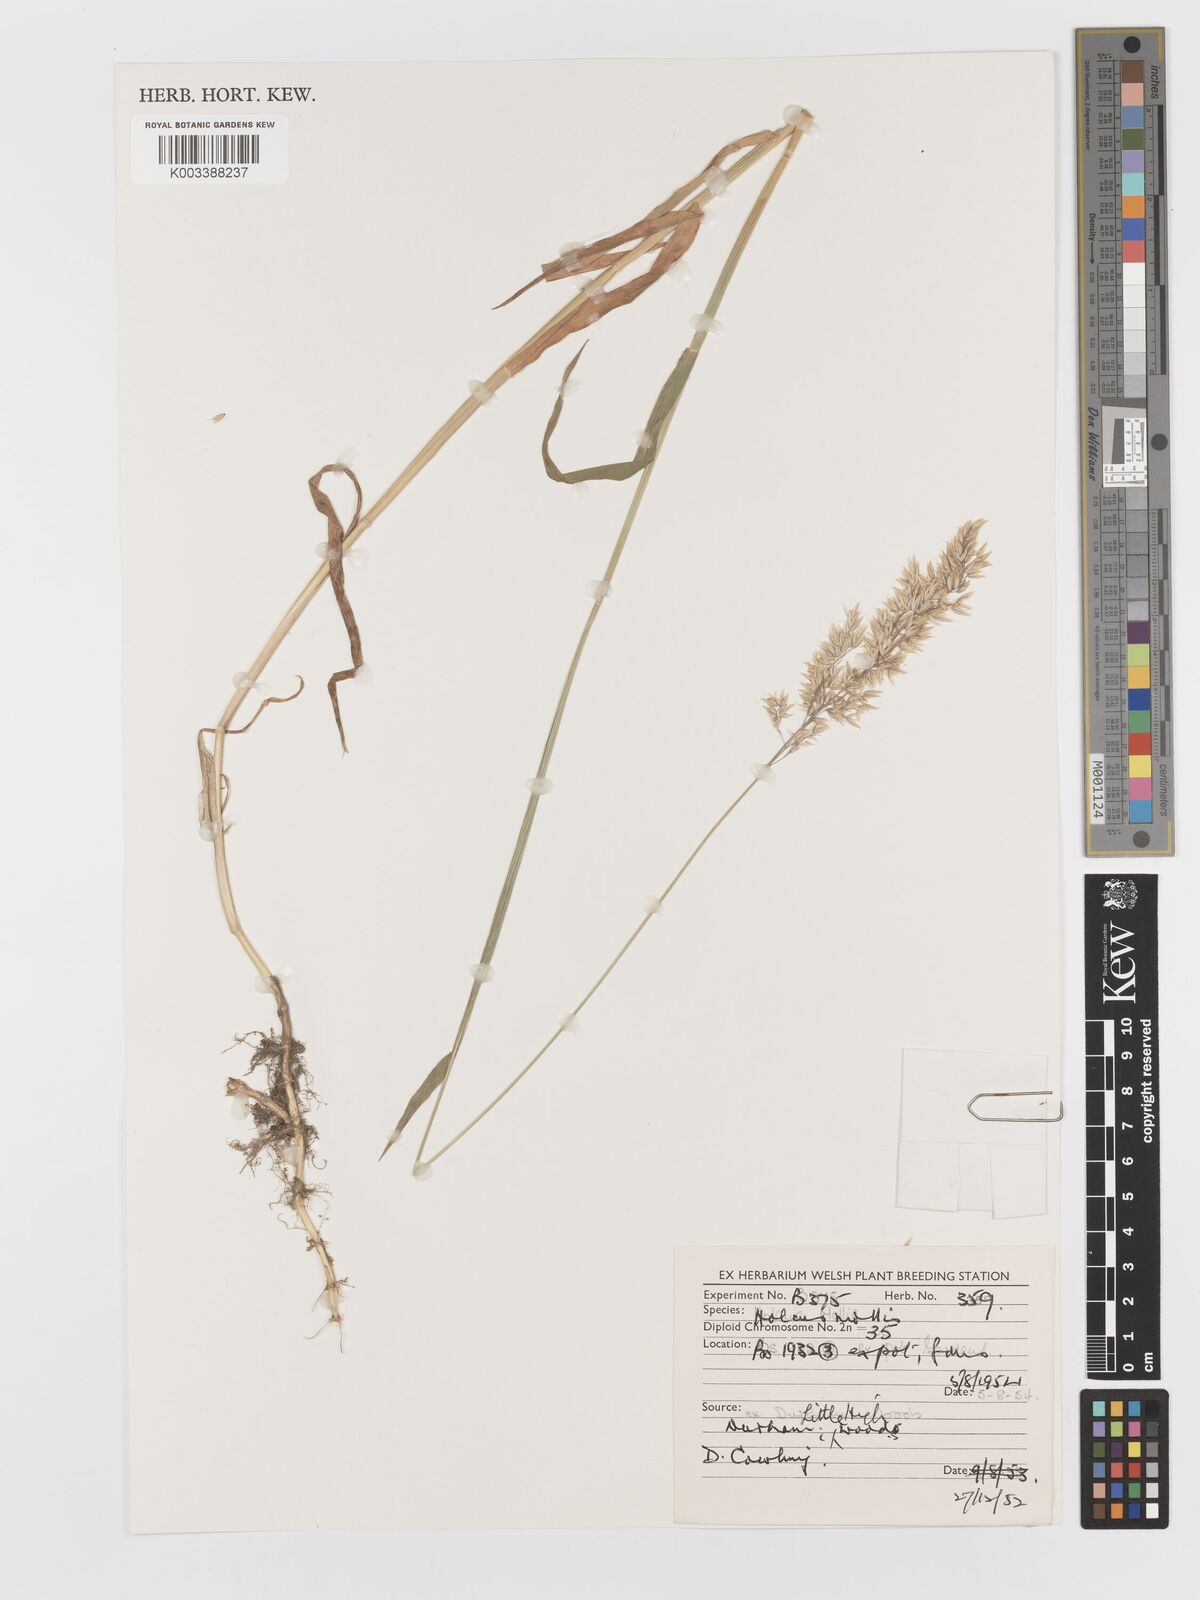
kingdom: Plantae
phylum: Tracheophyta
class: Liliopsida
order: Poales
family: Poaceae
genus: Holcus
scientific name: Holcus mollis
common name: Creeping velvetgrass
